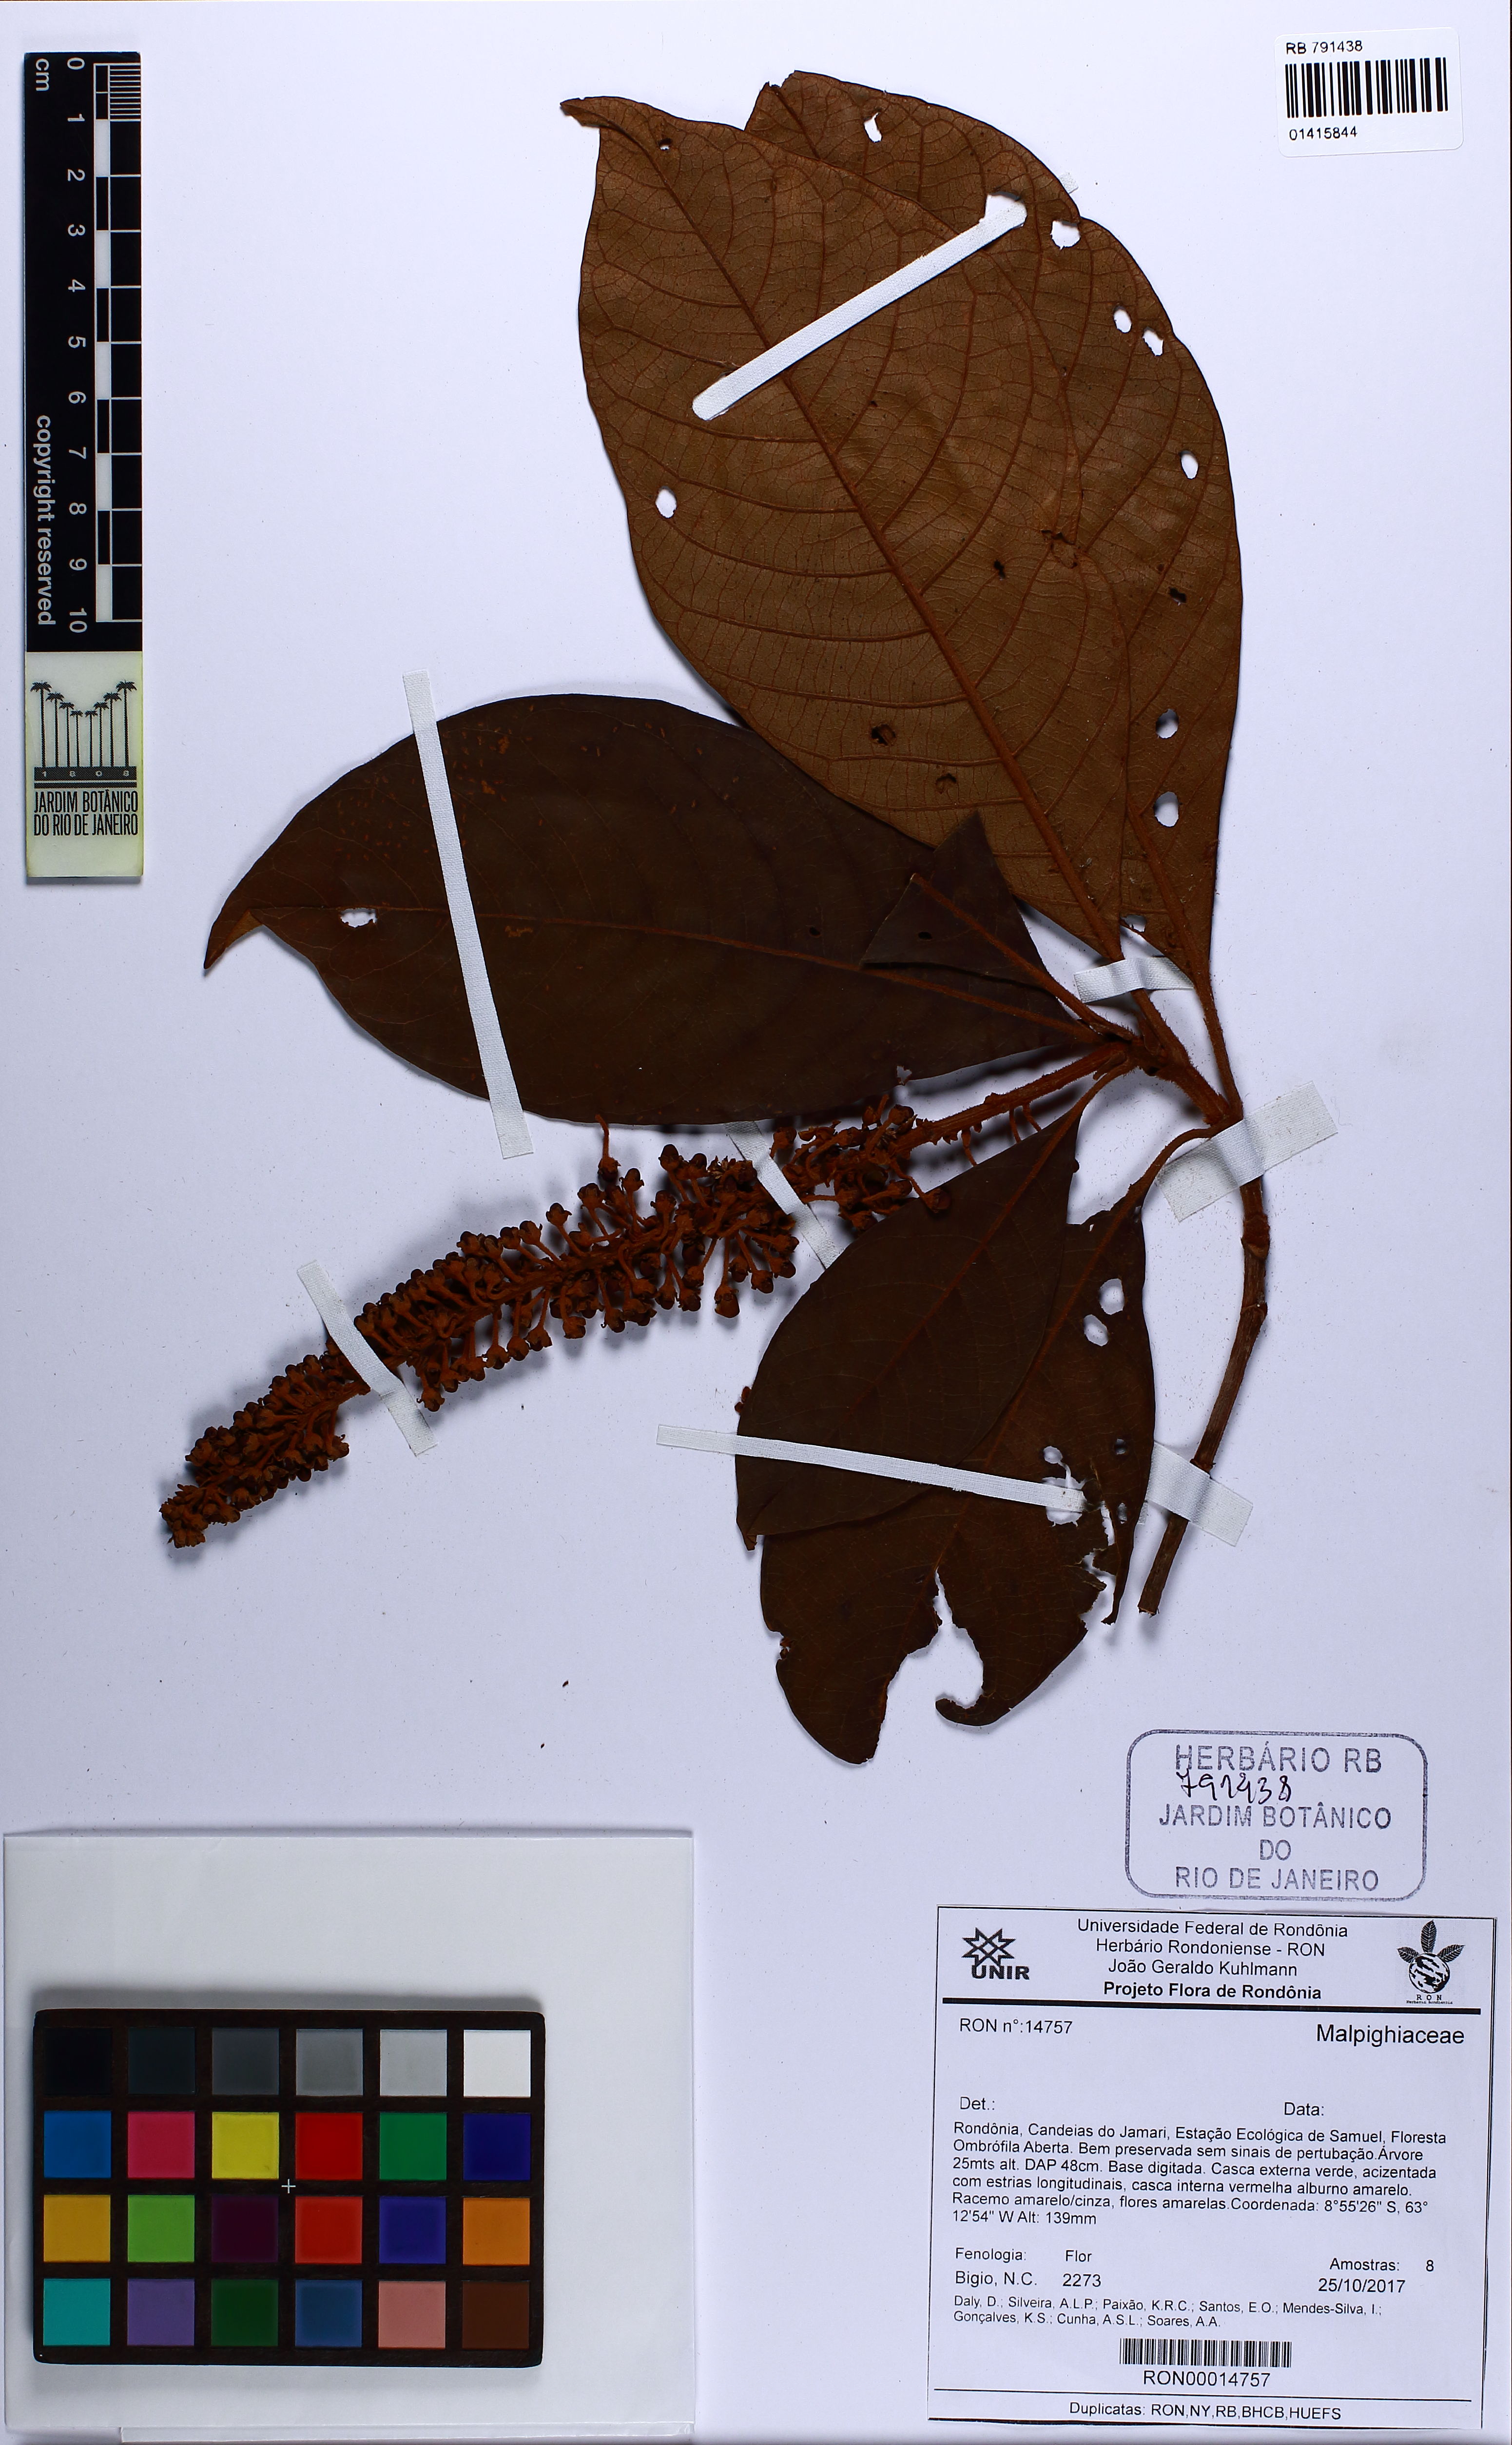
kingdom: Plantae
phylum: Tracheophyta
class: Magnoliopsida
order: Malpighiales
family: Malpighiaceae
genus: Byrsonima
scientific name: Byrsonima
